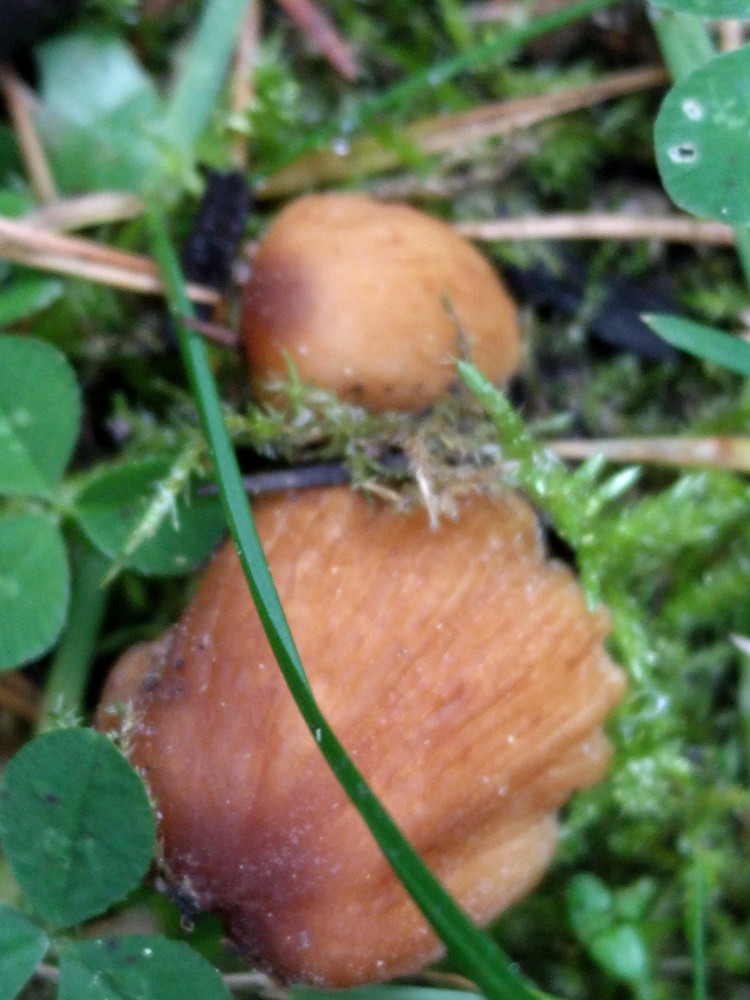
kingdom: Fungi
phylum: Basidiomycota
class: Agaricomycetes
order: Agaricales
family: Psathyrellaceae
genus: Coprinellus
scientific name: Coprinellus micaceus
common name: glimmer-blækhat
